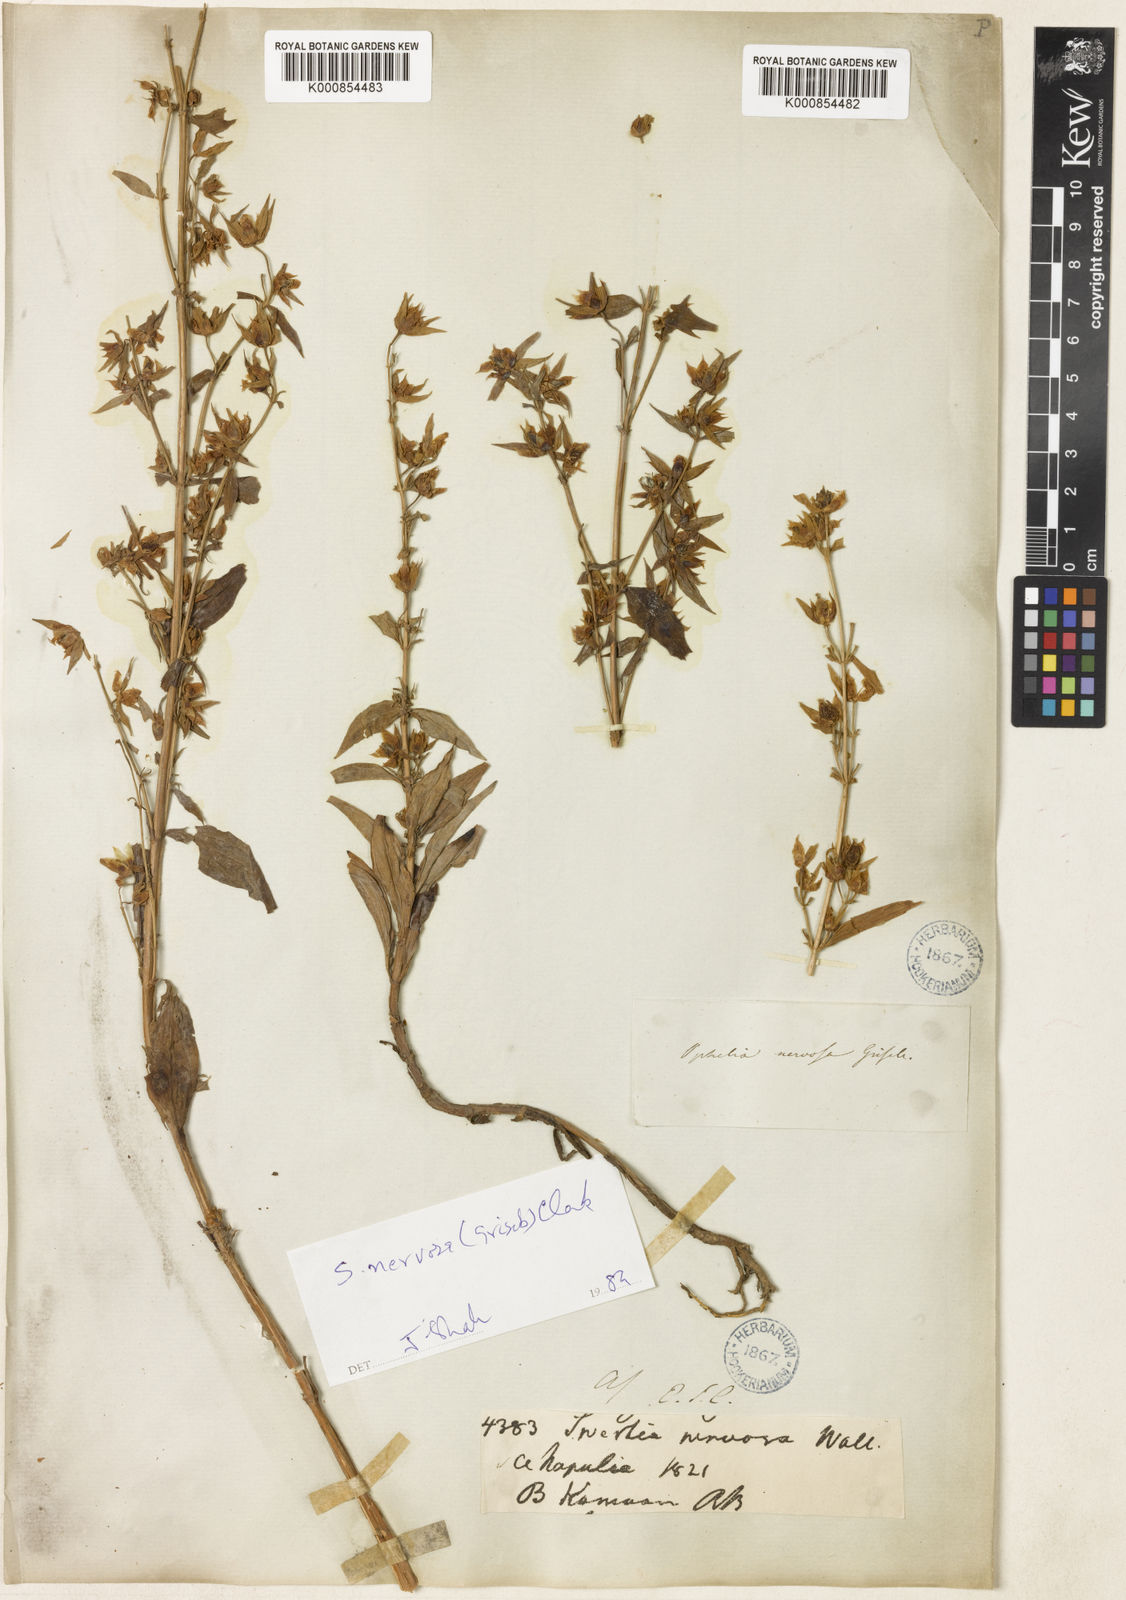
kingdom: Plantae
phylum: Tracheophyta
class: Magnoliopsida
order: Gentianales
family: Gentianaceae
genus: Swertia
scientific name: Swertia nervosa
